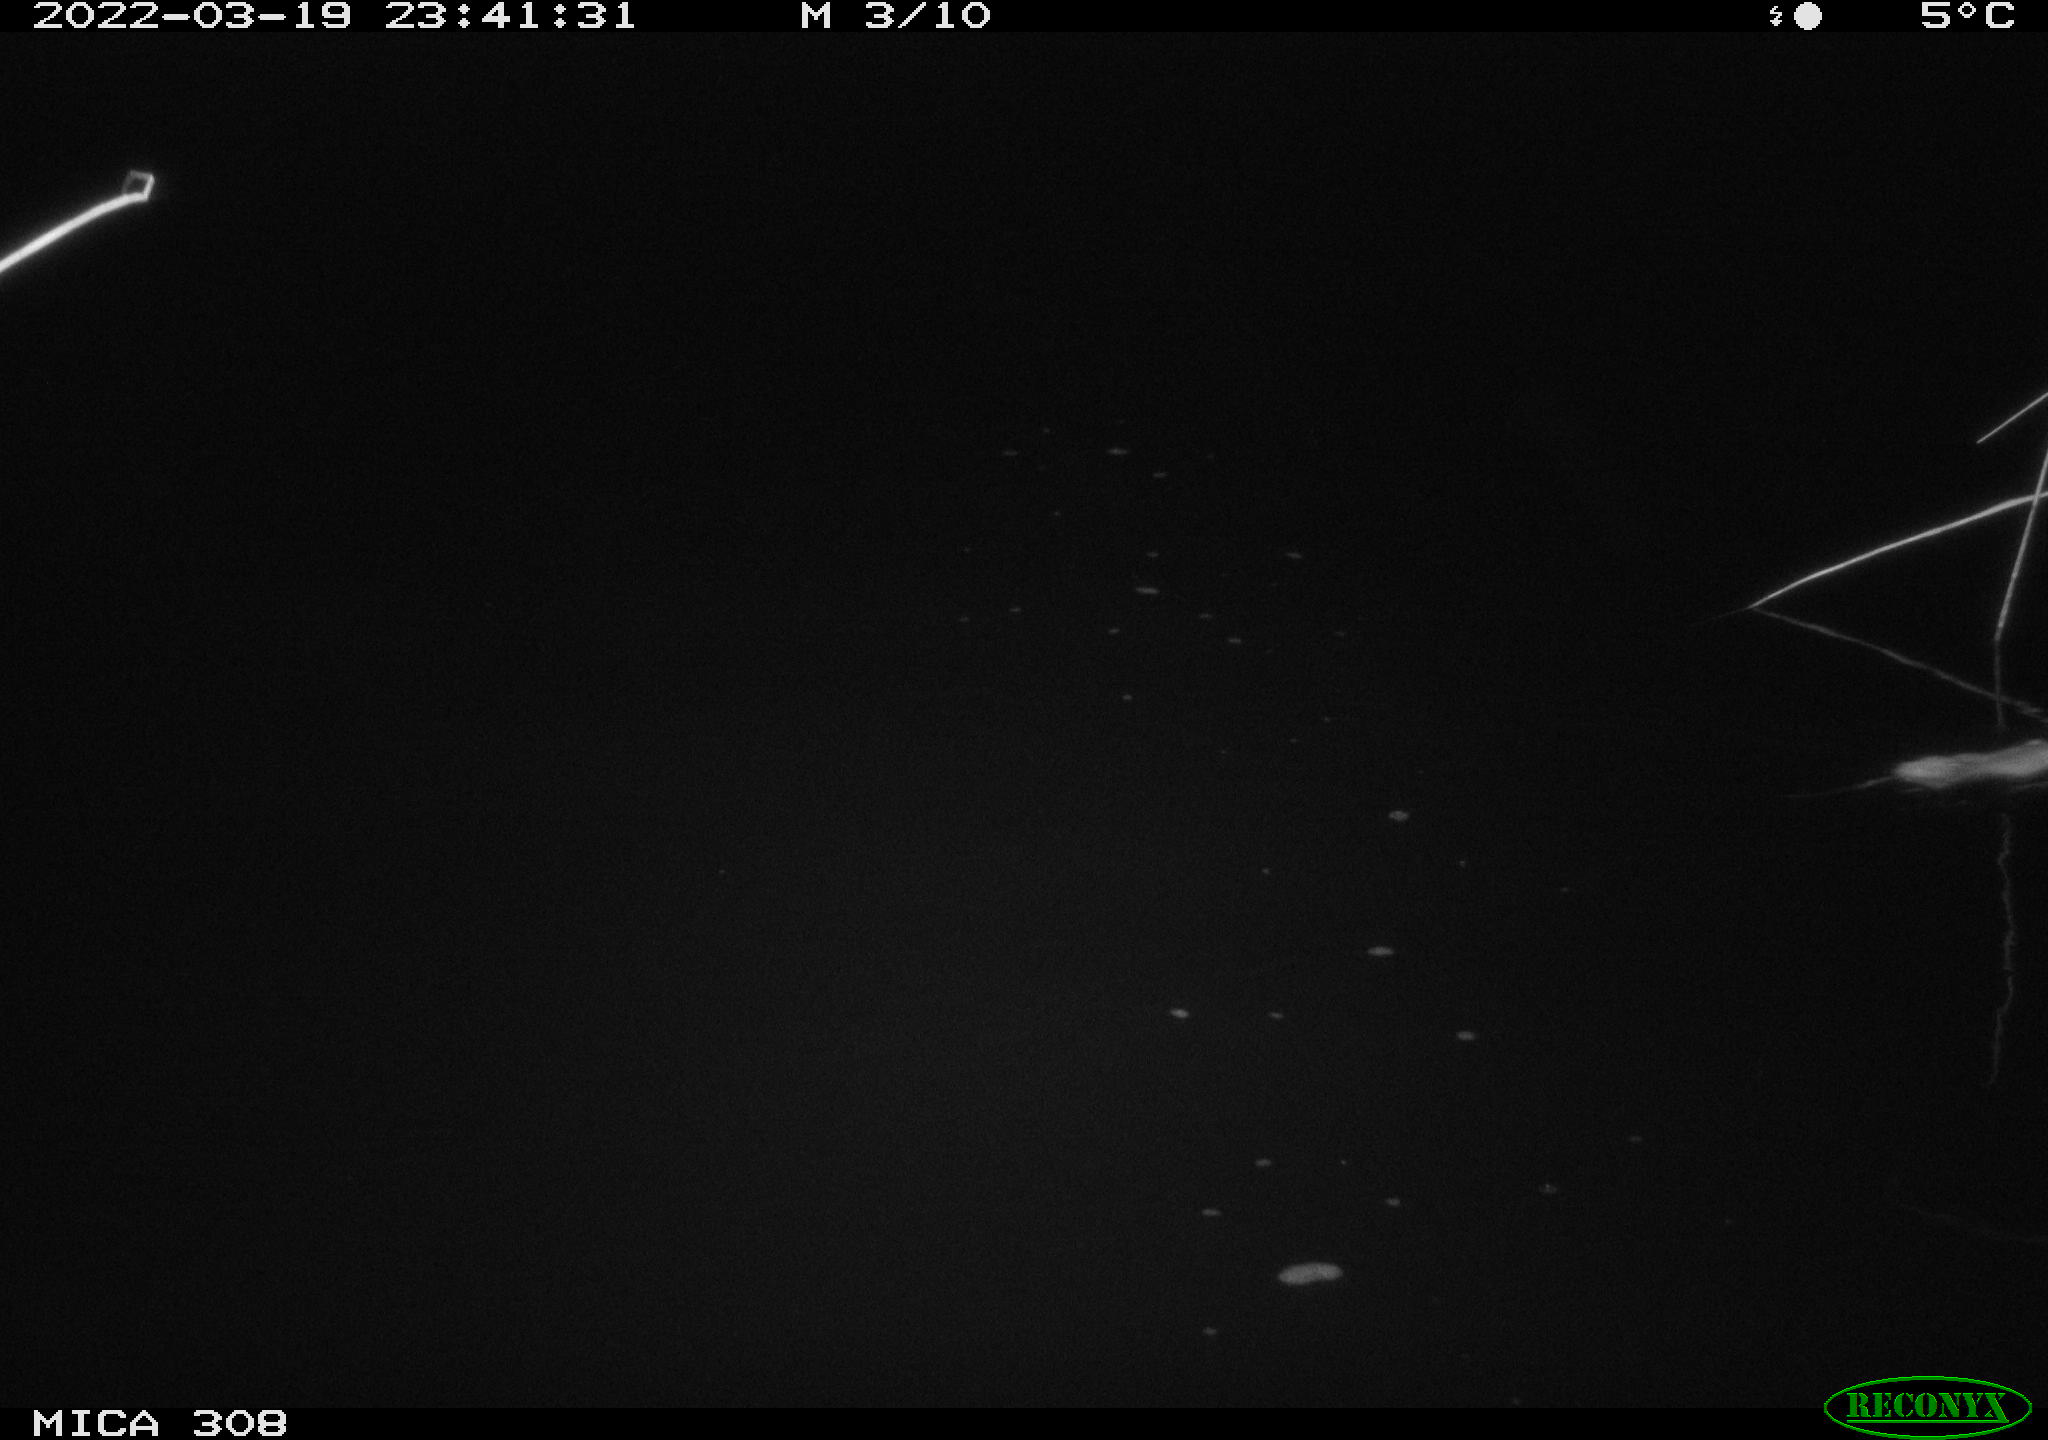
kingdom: Animalia
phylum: Chordata
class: Mammalia
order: Rodentia
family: Muridae
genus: Rattus
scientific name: Rattus norvegicus
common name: Brown rat
